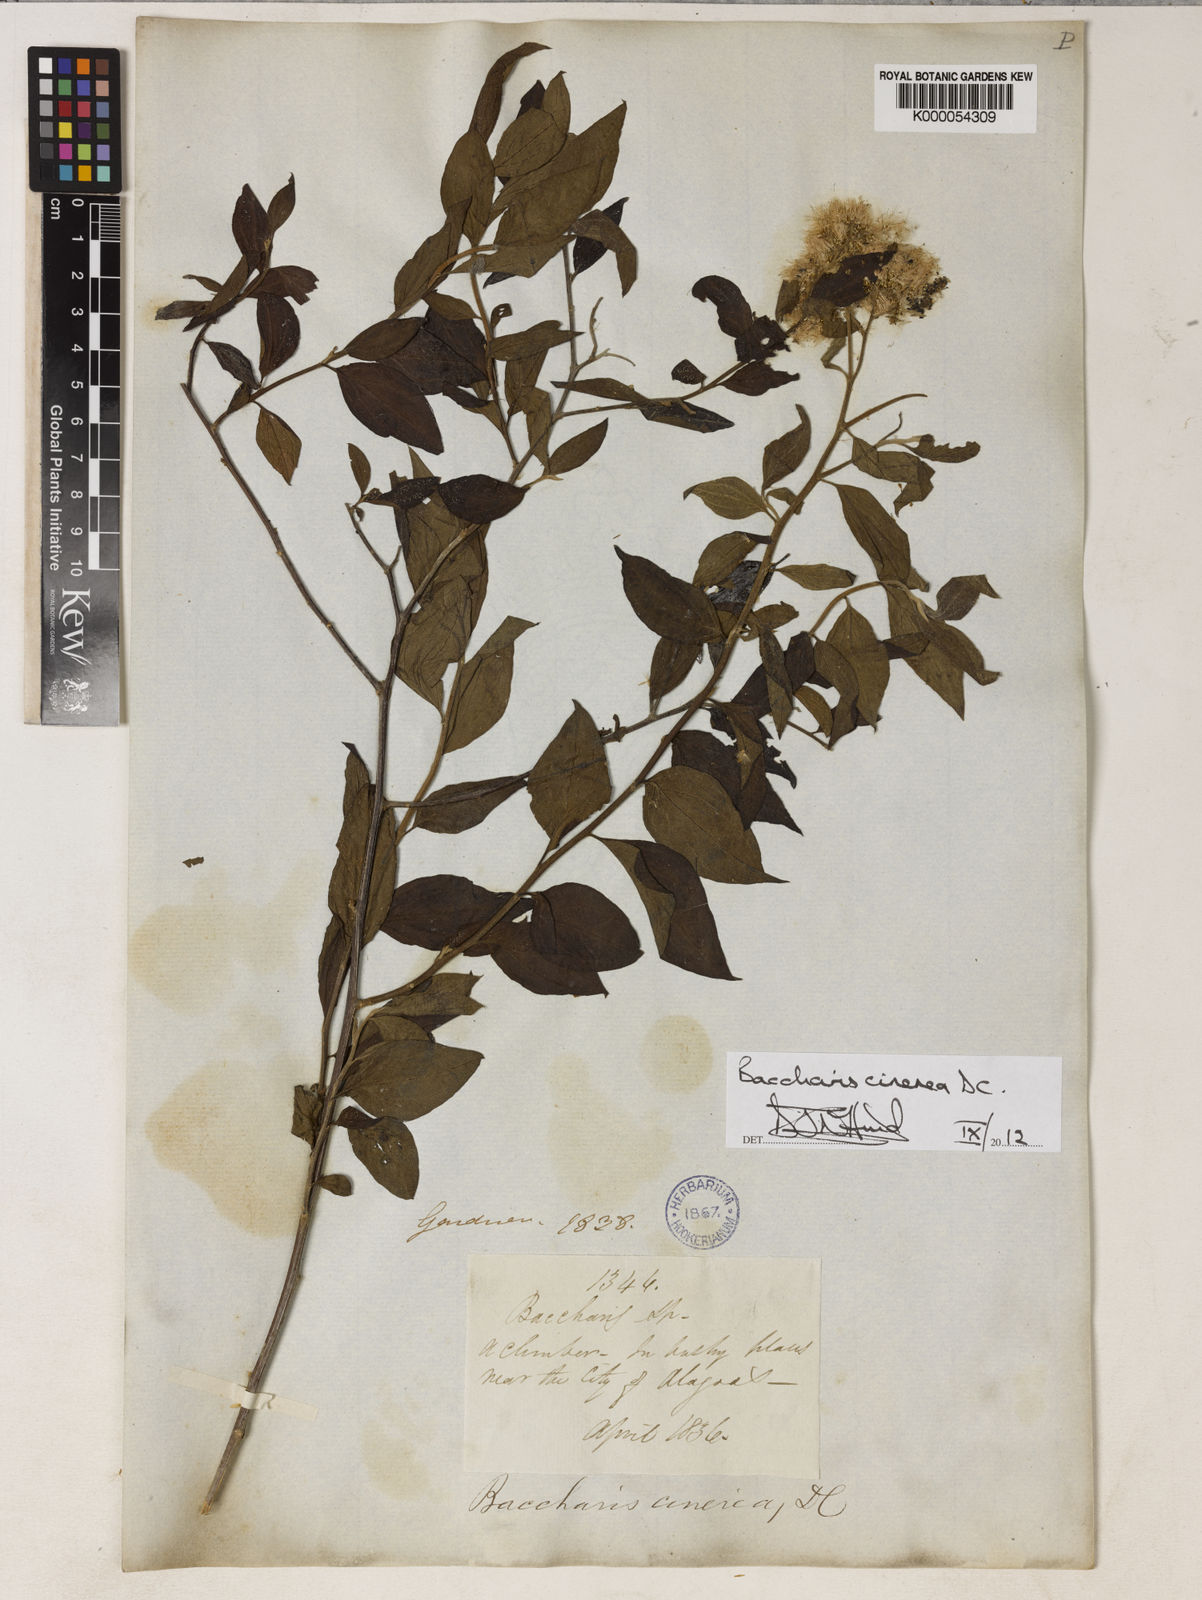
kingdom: Plantae
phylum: Tracheophyta
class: Magnoliopsida
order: Asterales
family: Asteraceae
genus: Baccharis
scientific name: Baccharis trinervis
